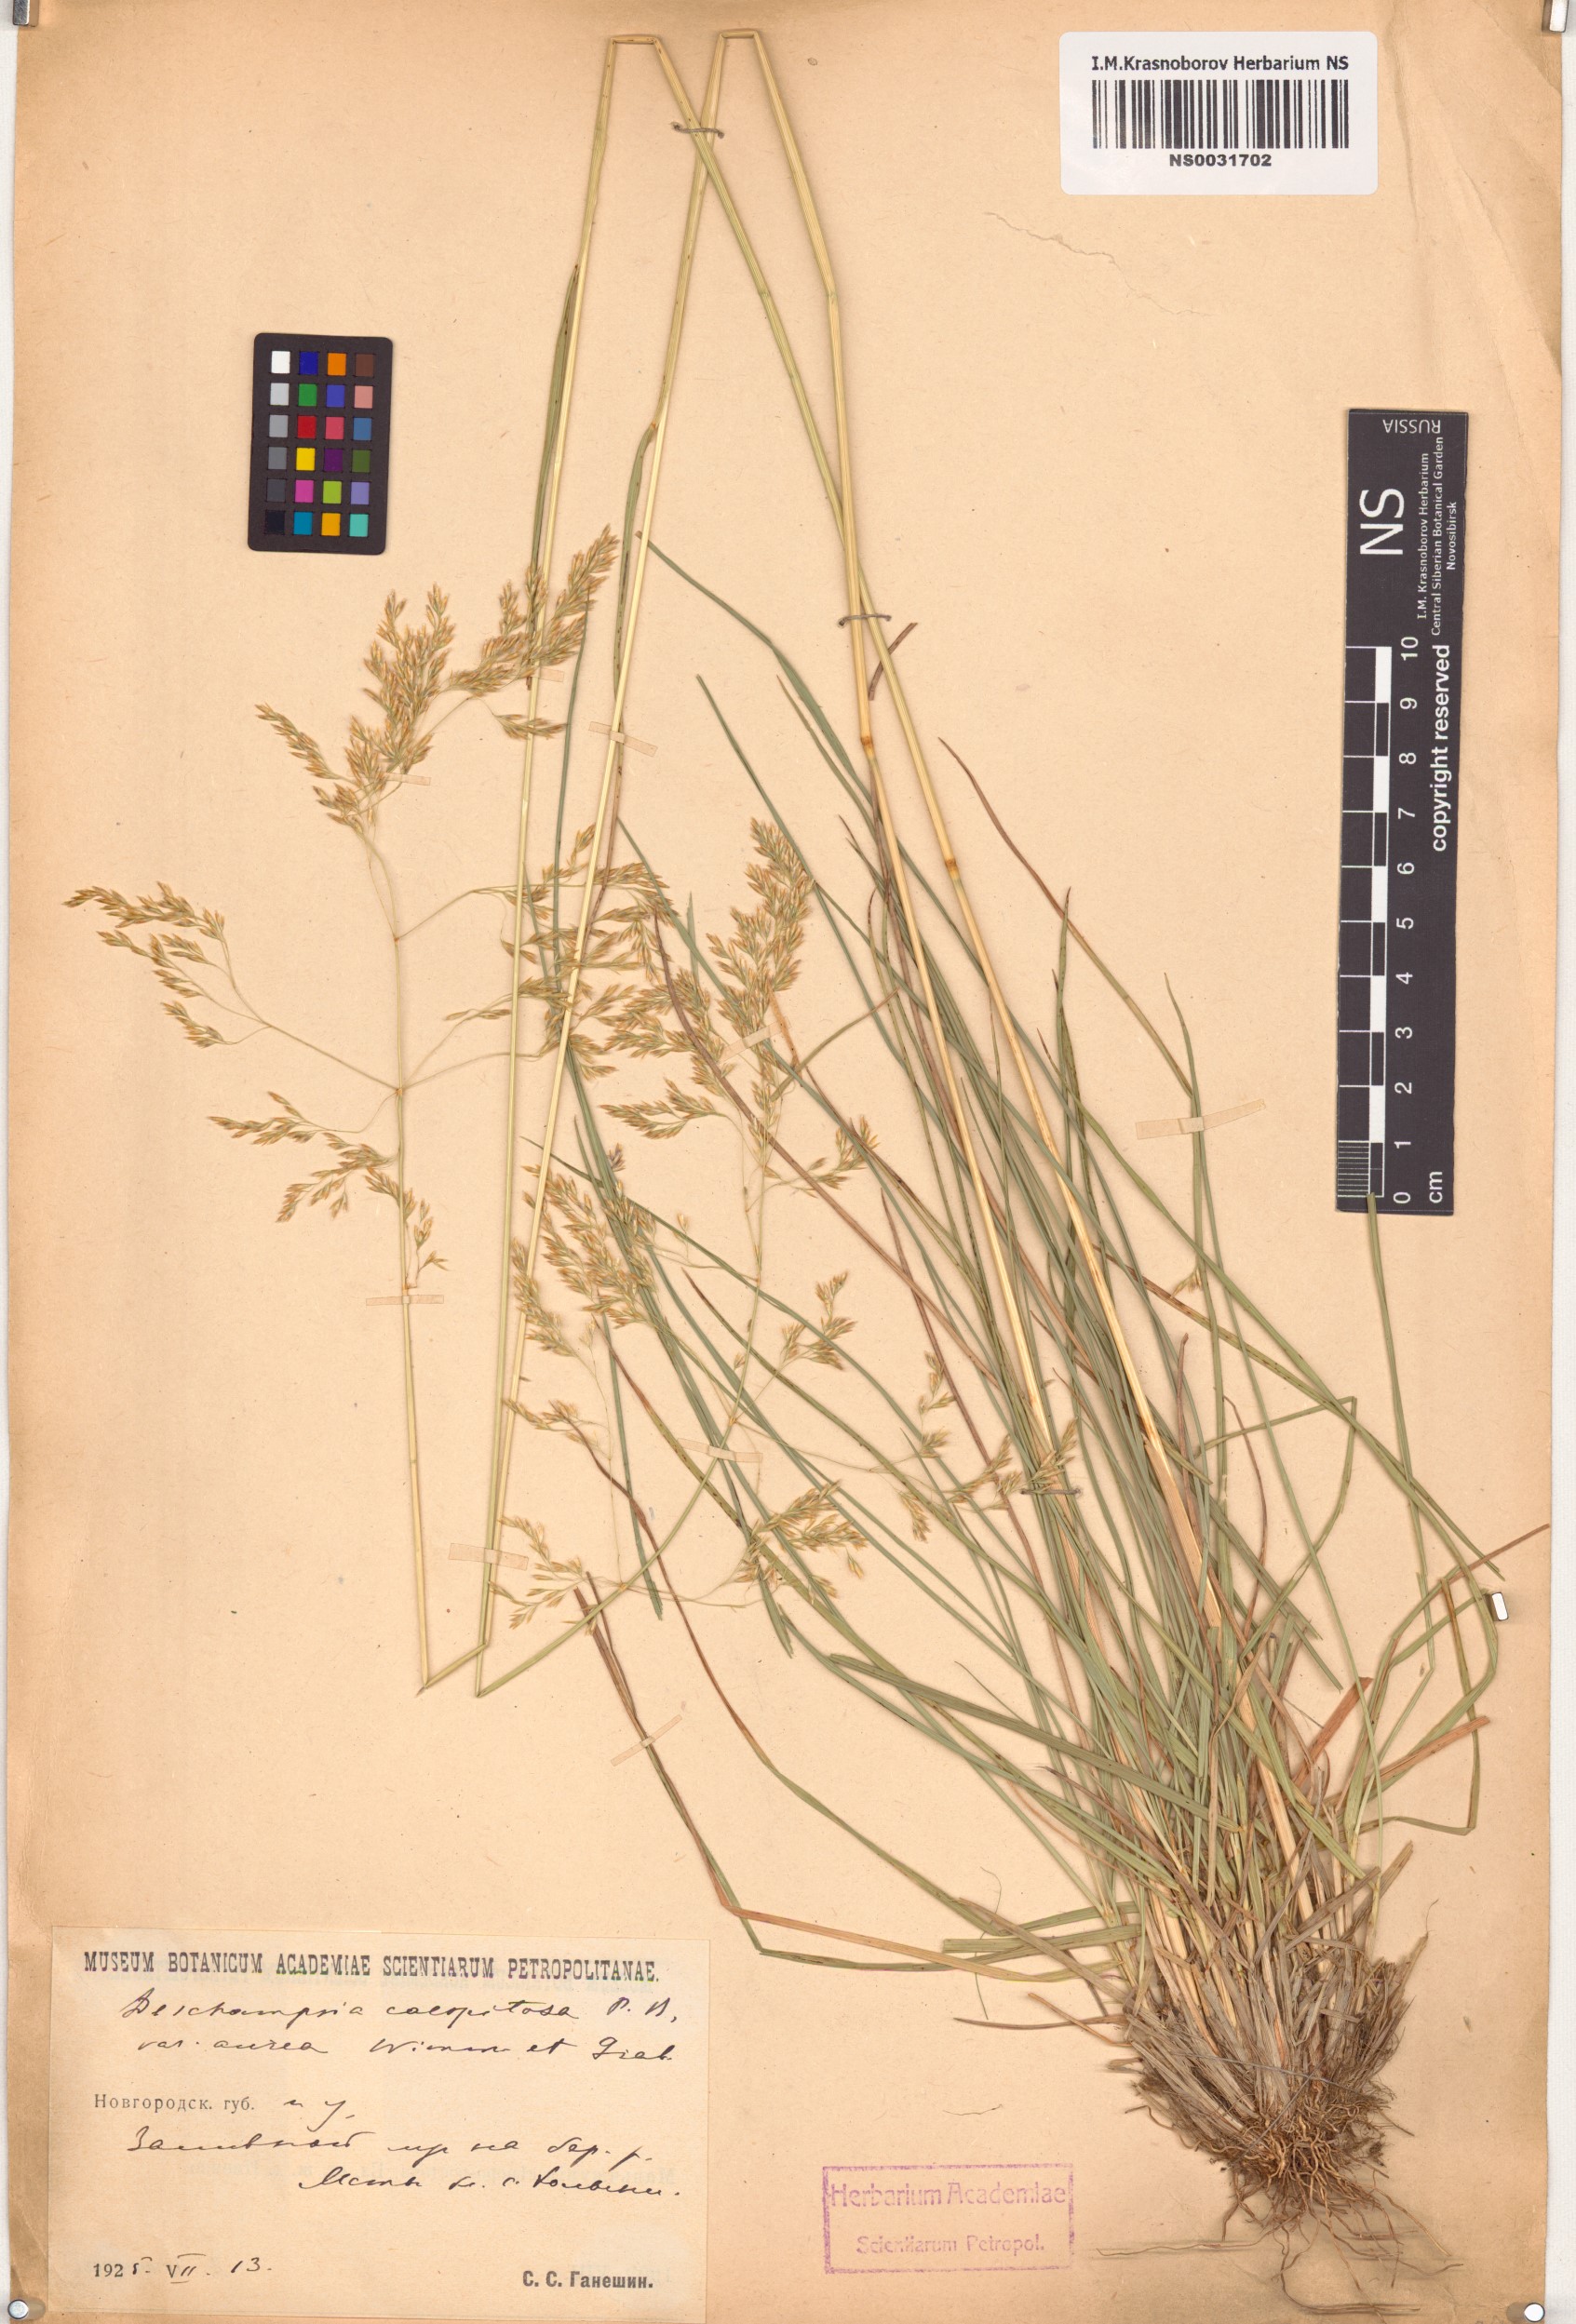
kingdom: Plantae
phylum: Tracheophyta
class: Liliopsida
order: Poales
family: Poaceae
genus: Deschampsia
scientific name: Deschampsia cespitosa
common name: Tufted hair-grass
